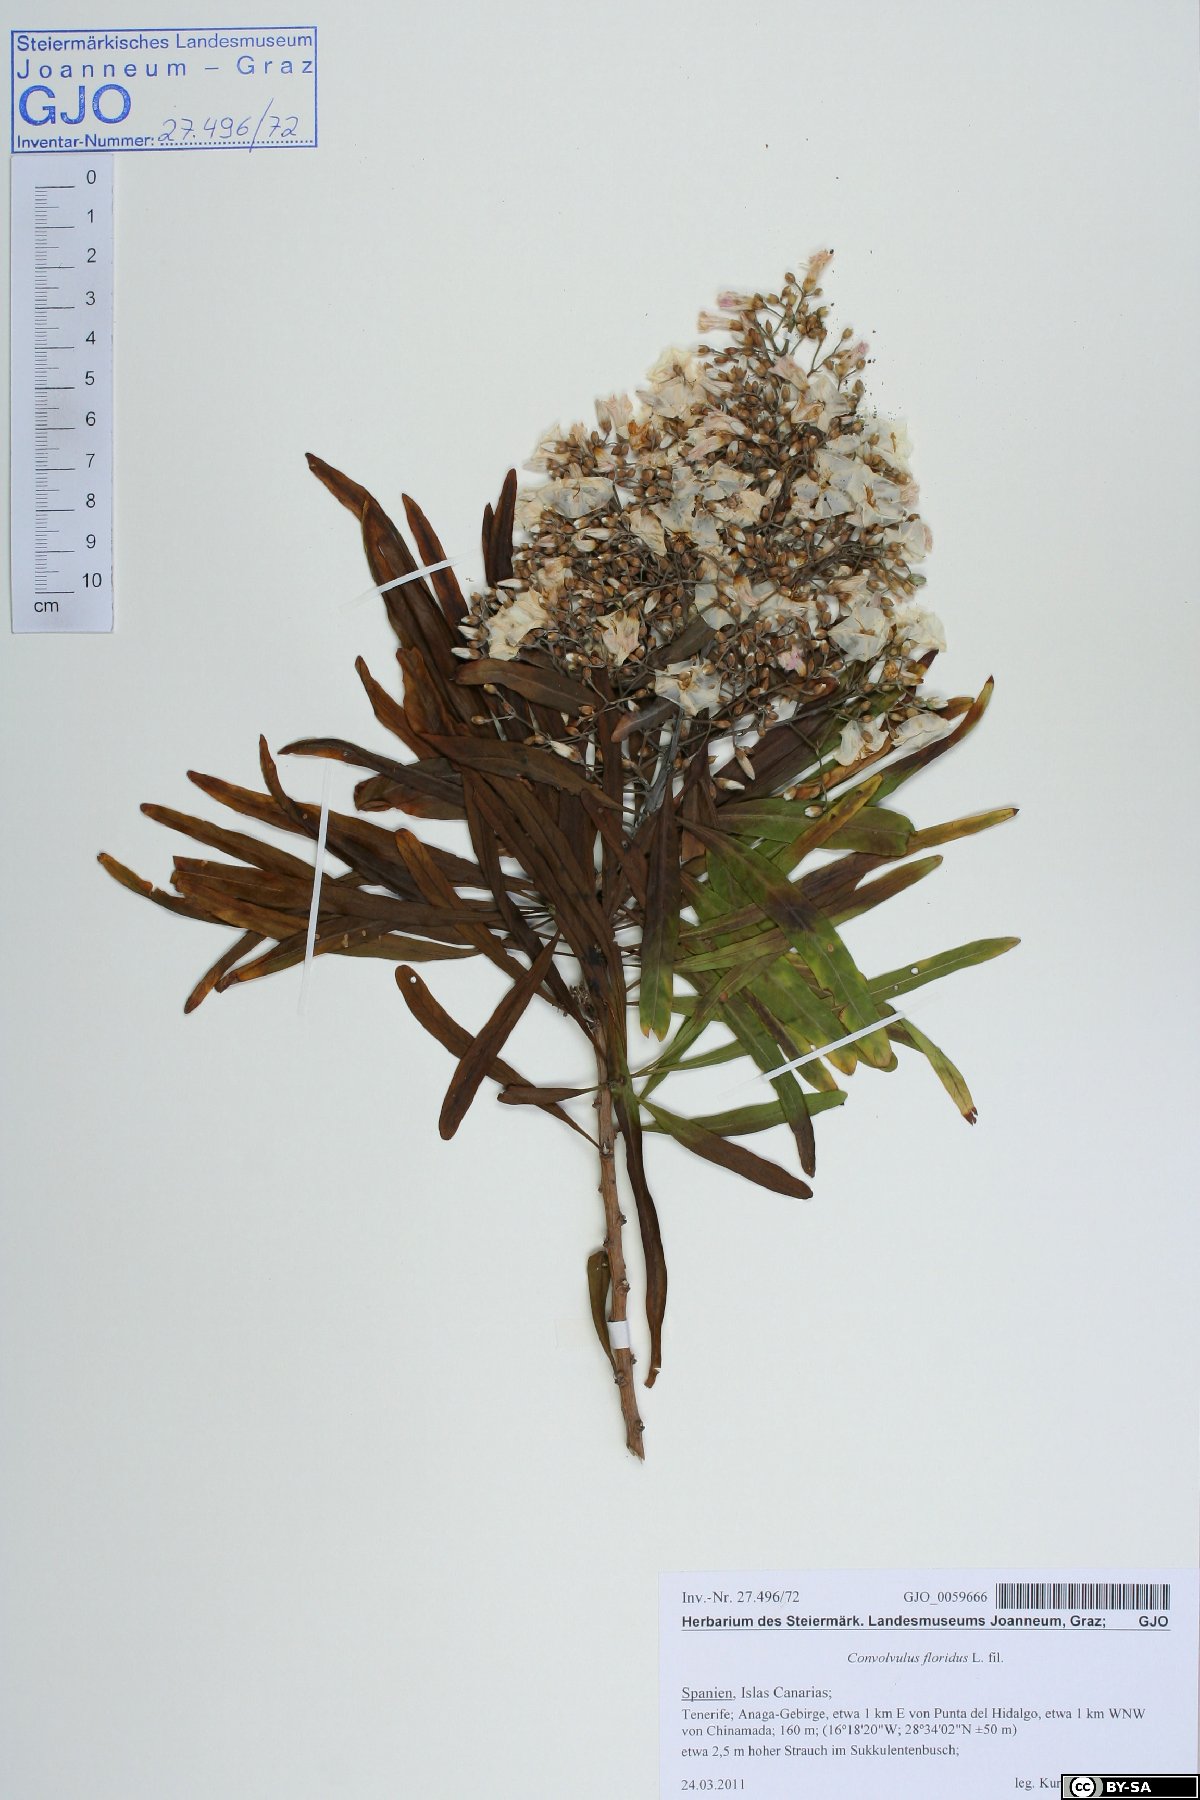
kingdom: Plantae
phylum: Tracheophyta
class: Magnoliopsida
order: Solanales
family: Convolvulaceae
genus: Convolvulus
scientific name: Convolvulus floridus
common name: Guadil
